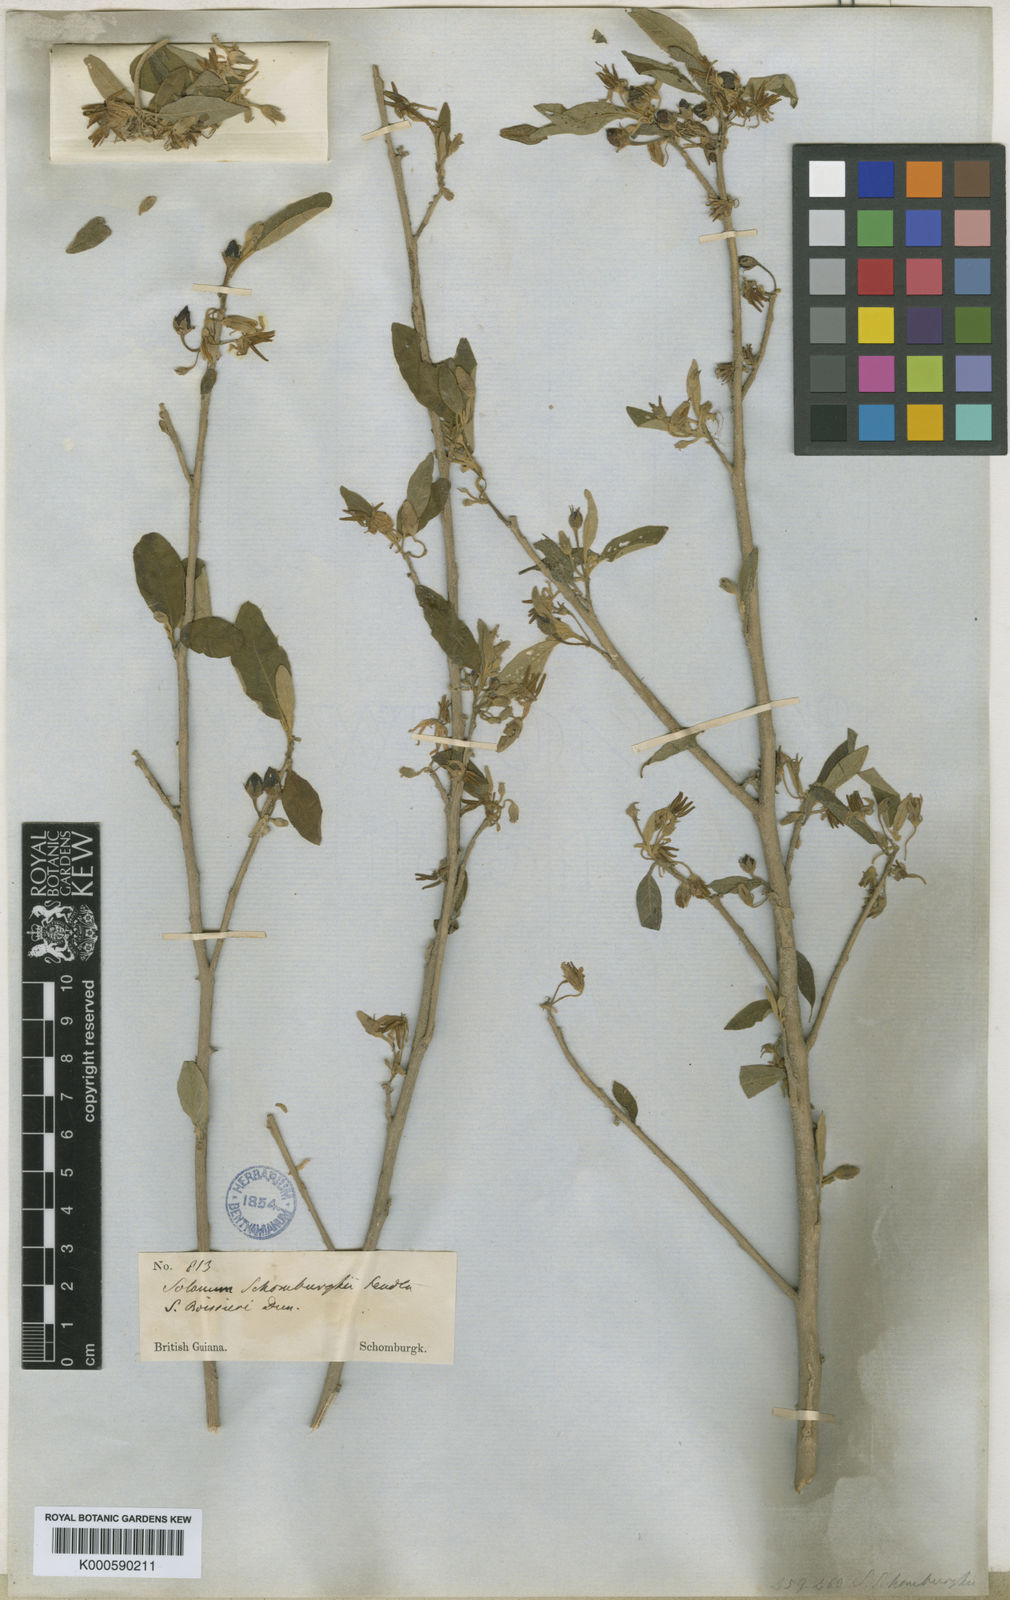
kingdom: Plantae
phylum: Tracheophyta
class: Magnoliopsida
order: Solanales
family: Solanaceae
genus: Solanum
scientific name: Solanum schomburgkii
